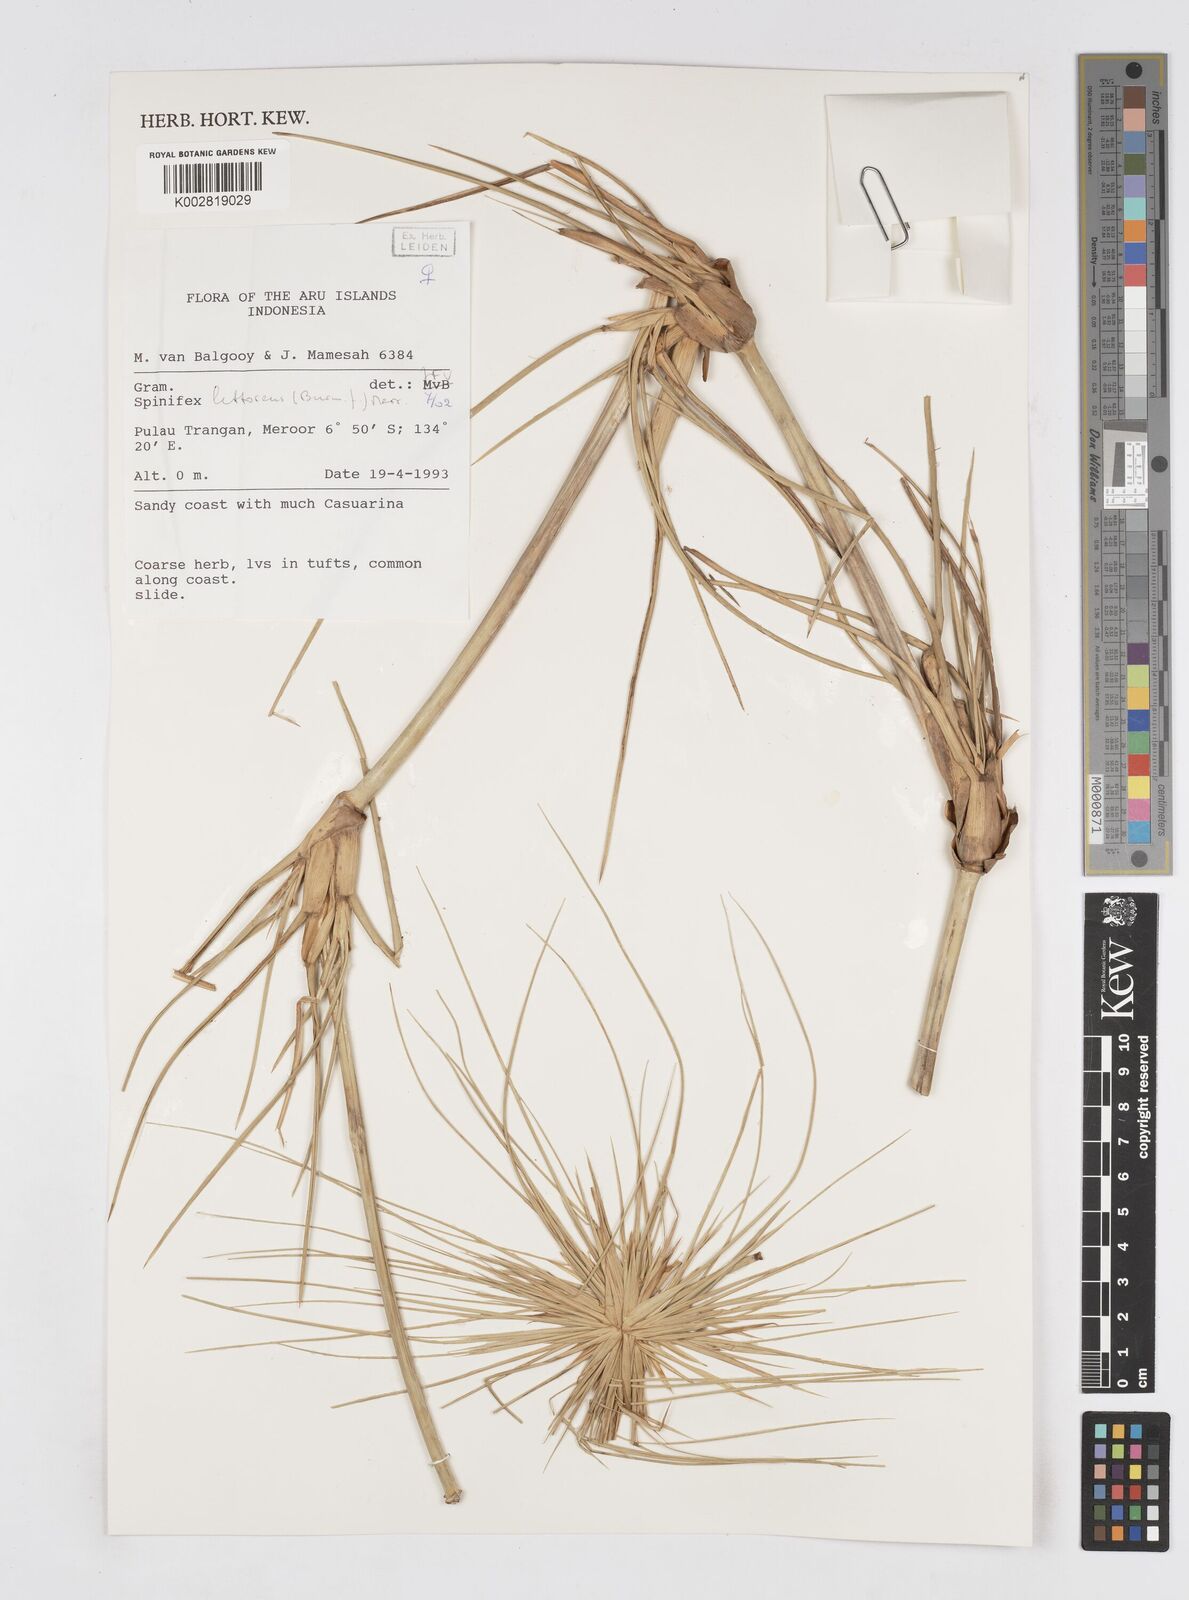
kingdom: Plantae
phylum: Tracheophyta
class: Liliopsida
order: Poales
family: Poaceae
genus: Spinifex
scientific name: Spinifex littoreus
